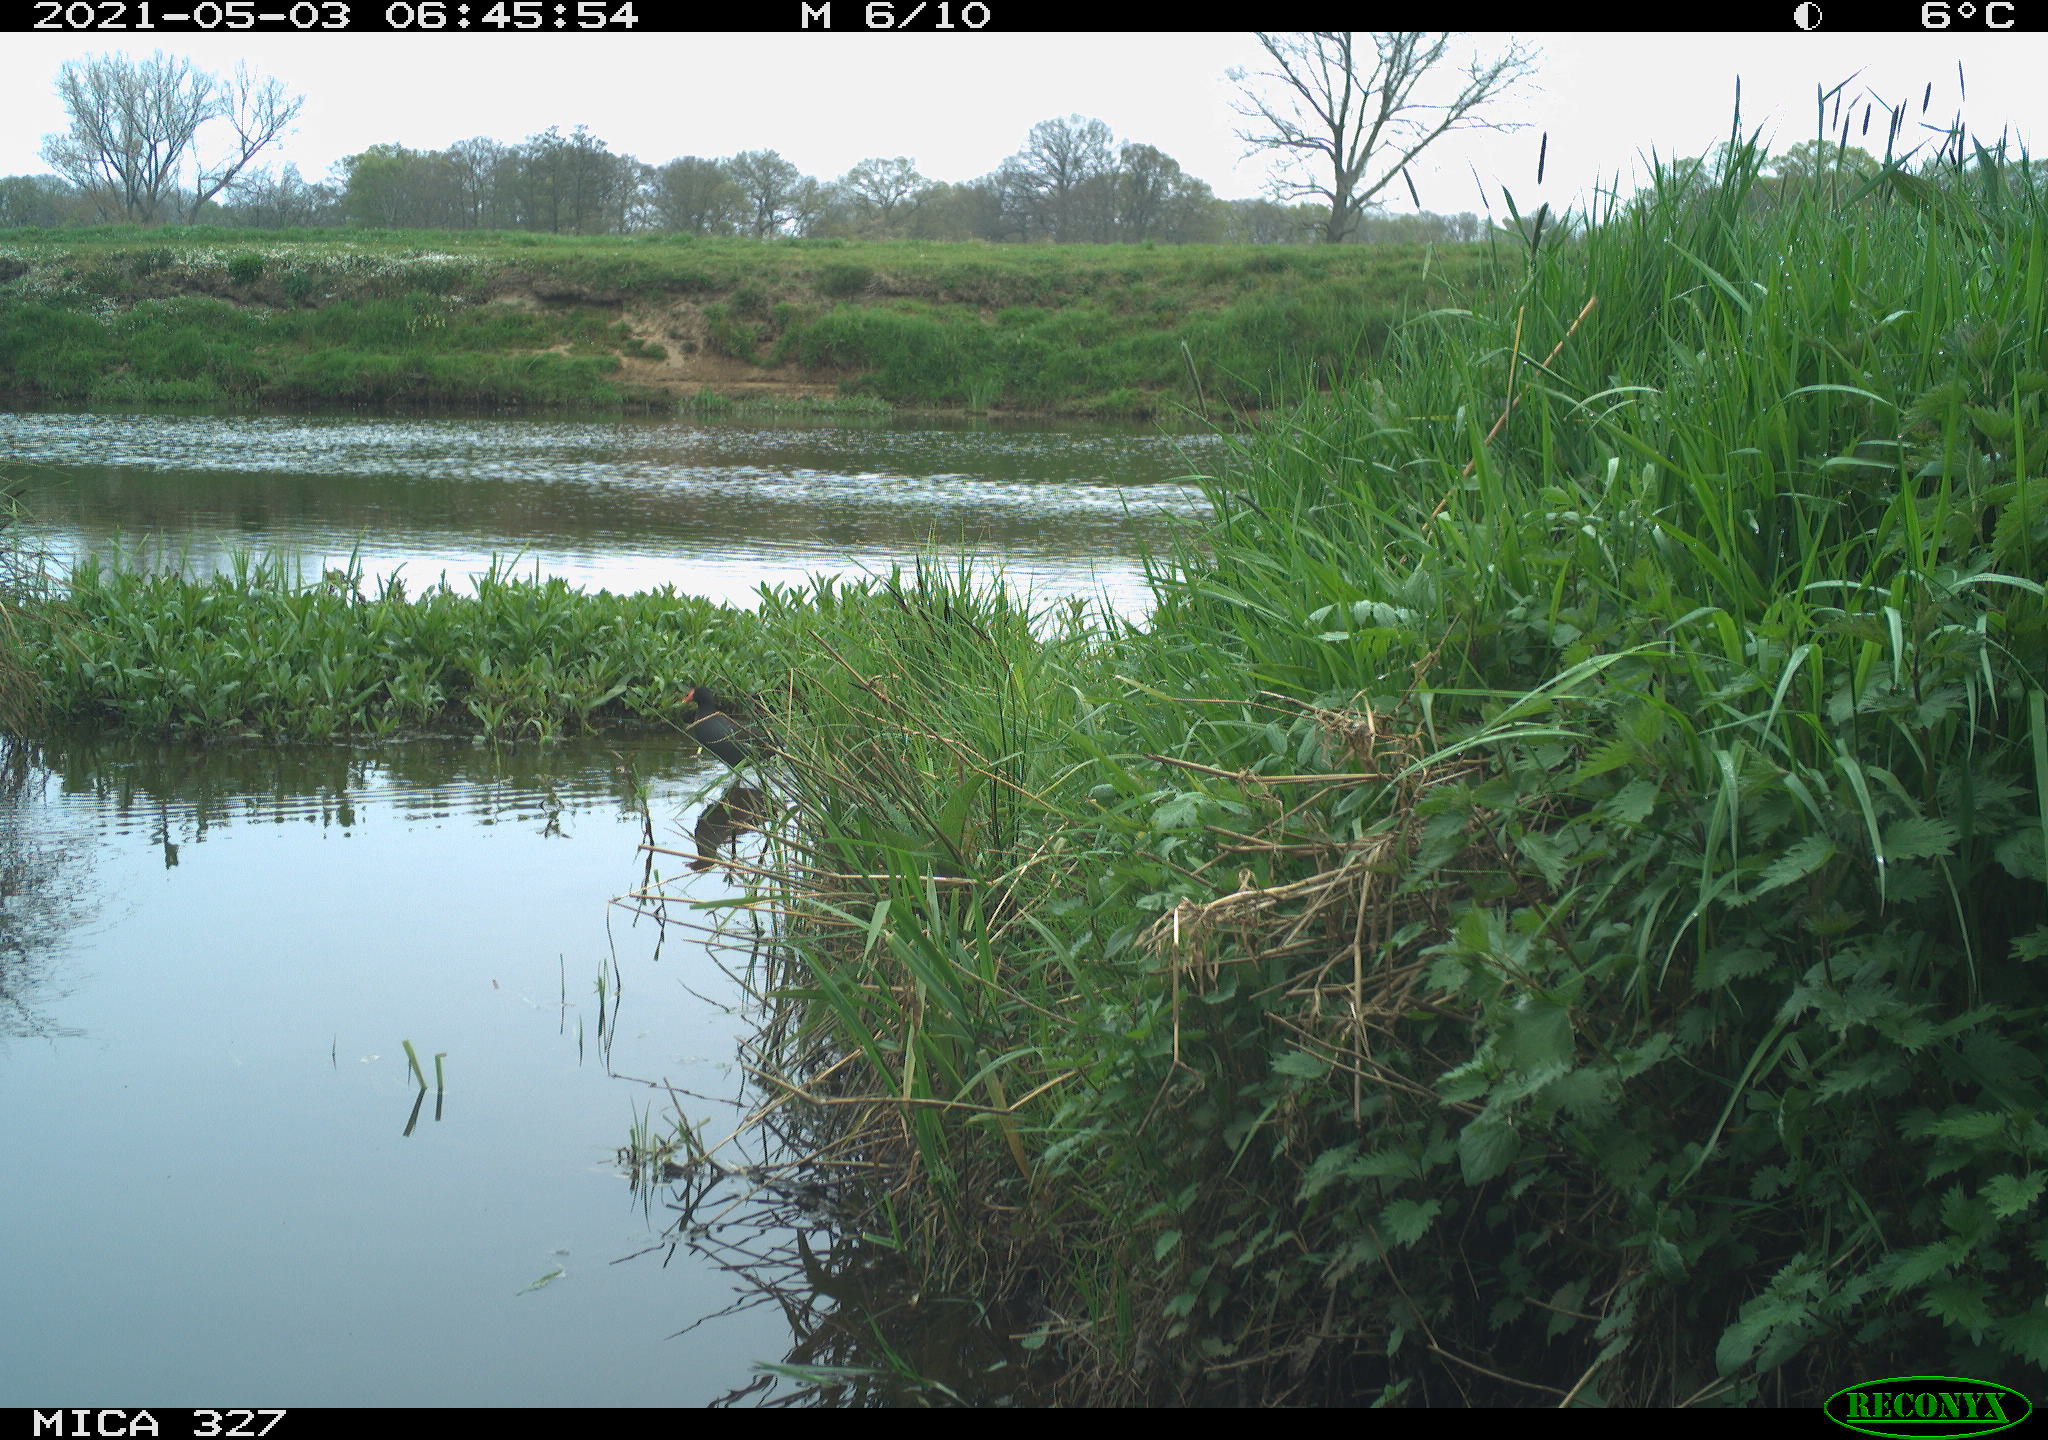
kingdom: Animalia
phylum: Chordata
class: Aves
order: Gruiformes
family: Rallidae
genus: Gallinula
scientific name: Gallinula chloropus
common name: Common moorhen
